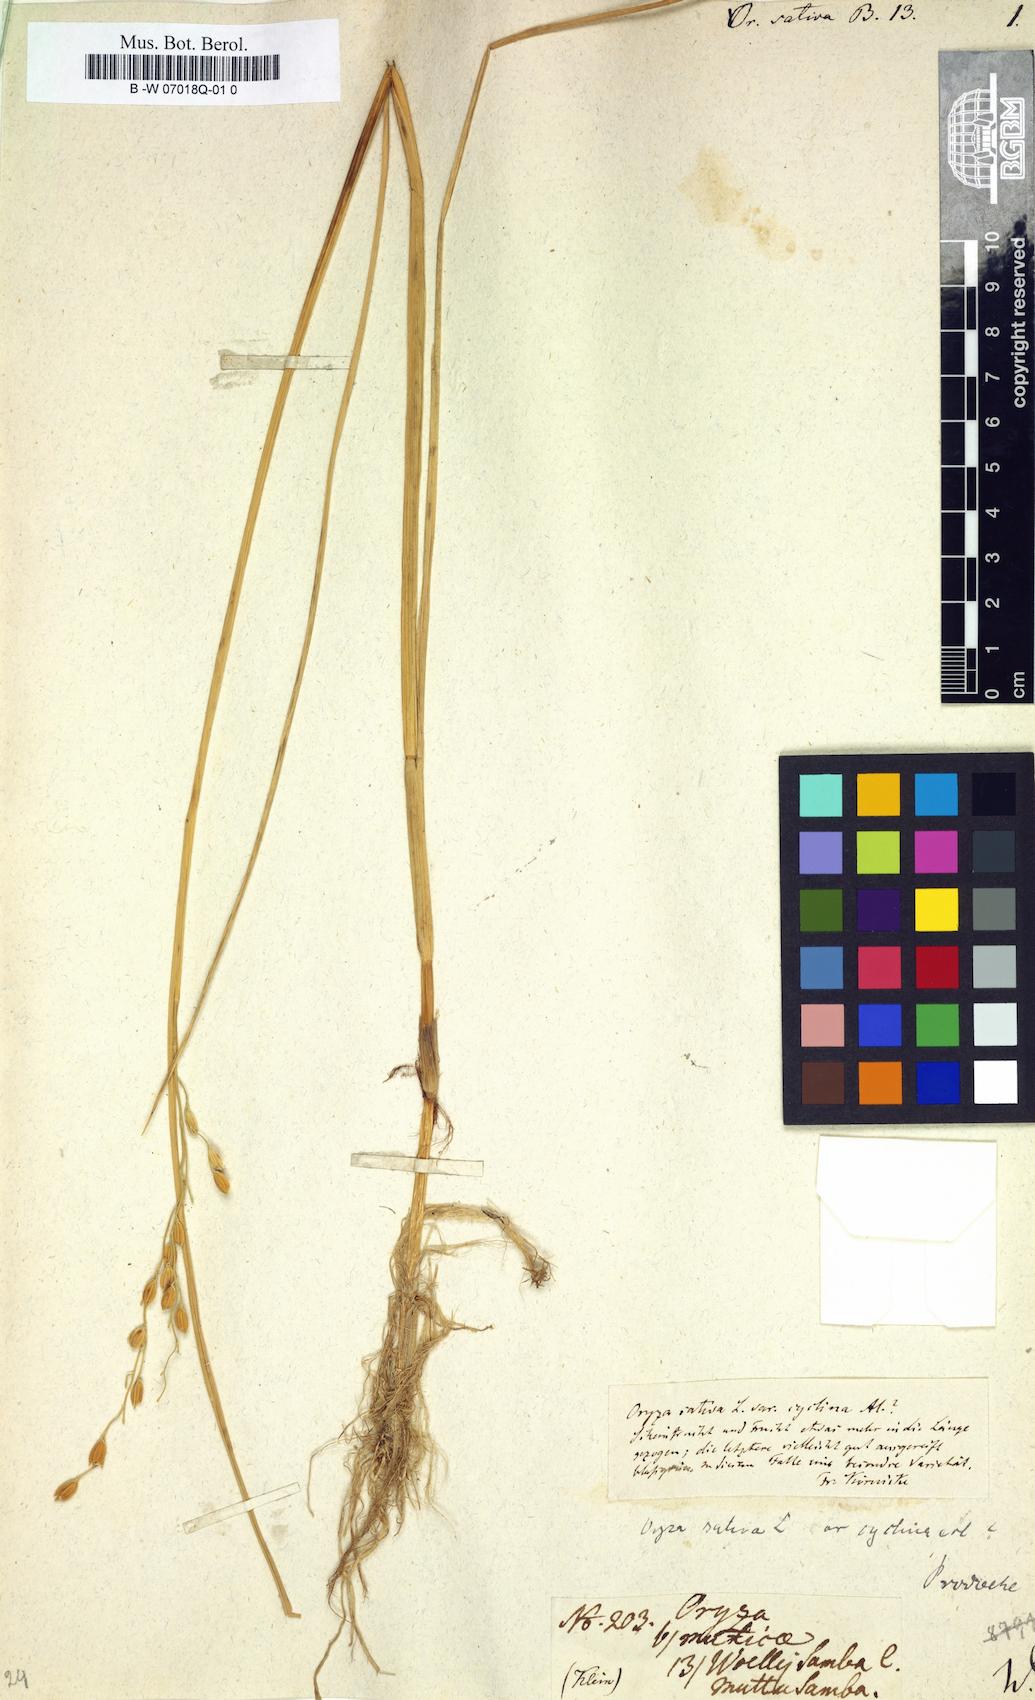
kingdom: Plantae
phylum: Tracheophyta
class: Liliopsida
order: Poales
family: Poaceae
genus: Oryza
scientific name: Oryza sativa
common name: Rice
